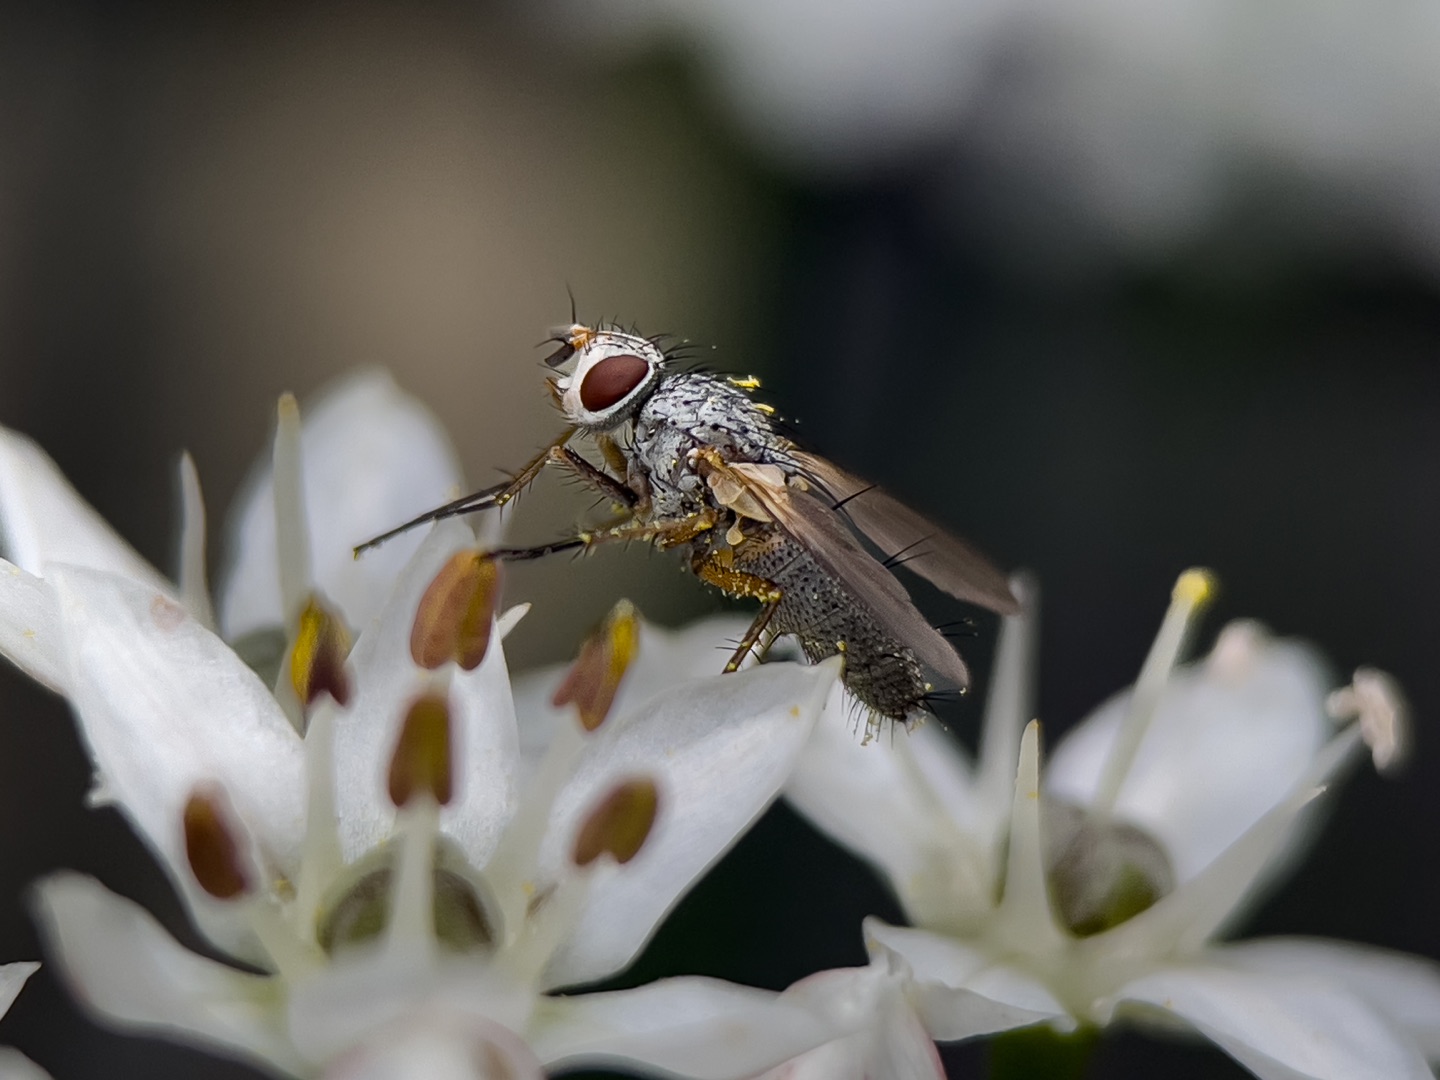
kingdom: Animalia
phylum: Arthropoda
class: Insecta
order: Diptera
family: Tachinidae
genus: Dinera
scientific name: Dinera grisescens
